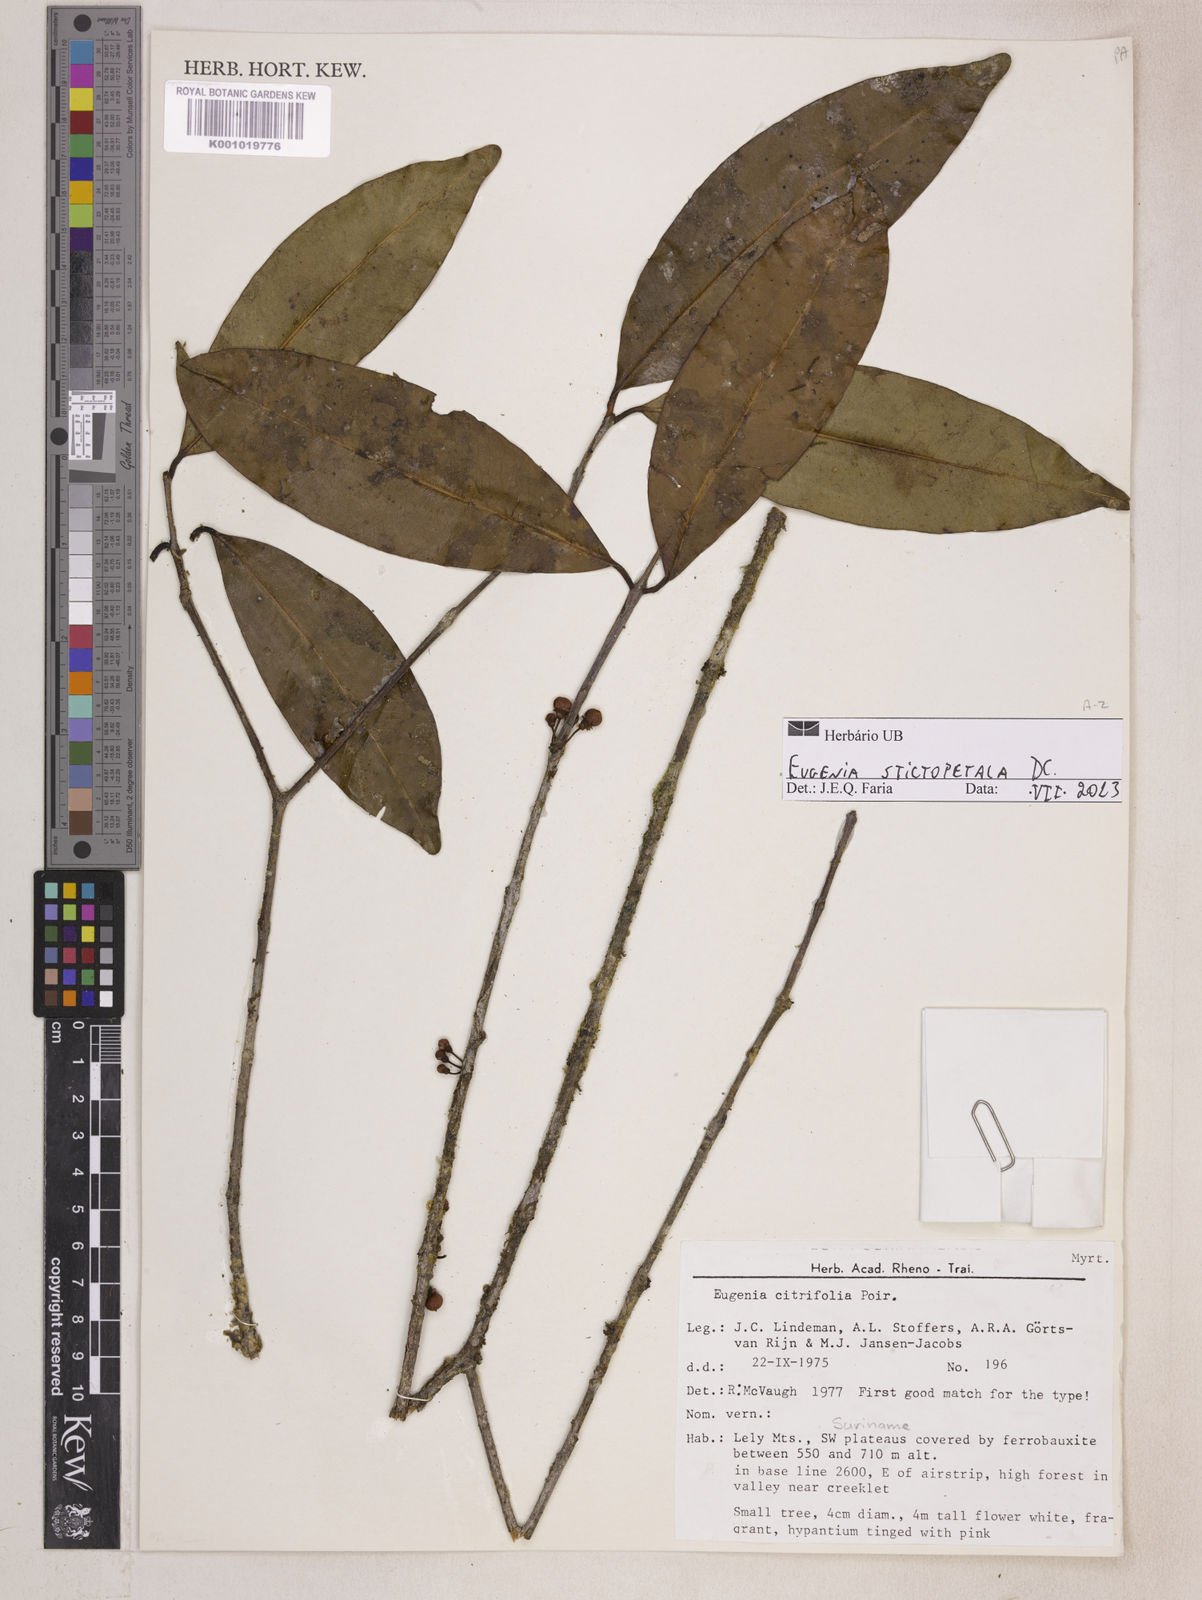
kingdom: Plantae
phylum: Tracheophyta
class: Magnoliopsida
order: Myrtales
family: Myrtaceae
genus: Eugenia
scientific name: Eugenia stictopetala
